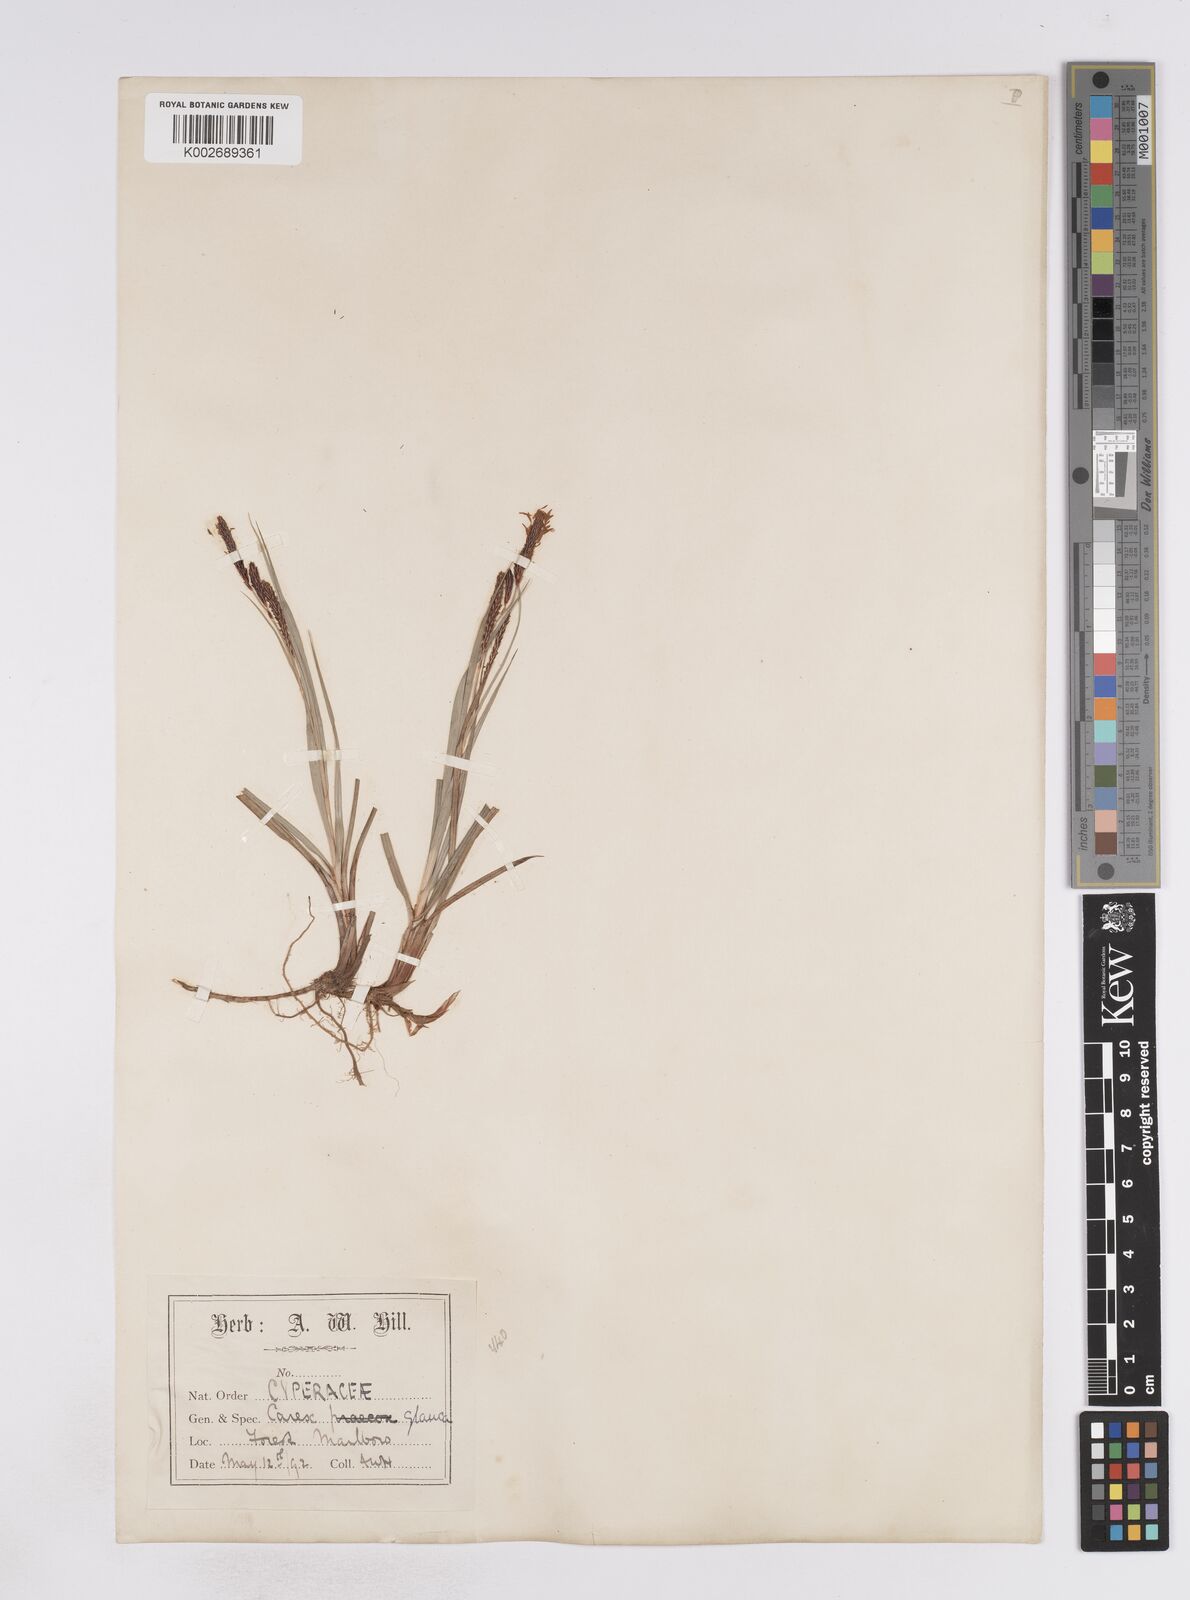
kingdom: Plantae
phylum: Tracheophyta
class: Liliopsida
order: Poales
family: Cyperaceae
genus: Carex
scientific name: Carex flacca
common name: Glaucous sedge
